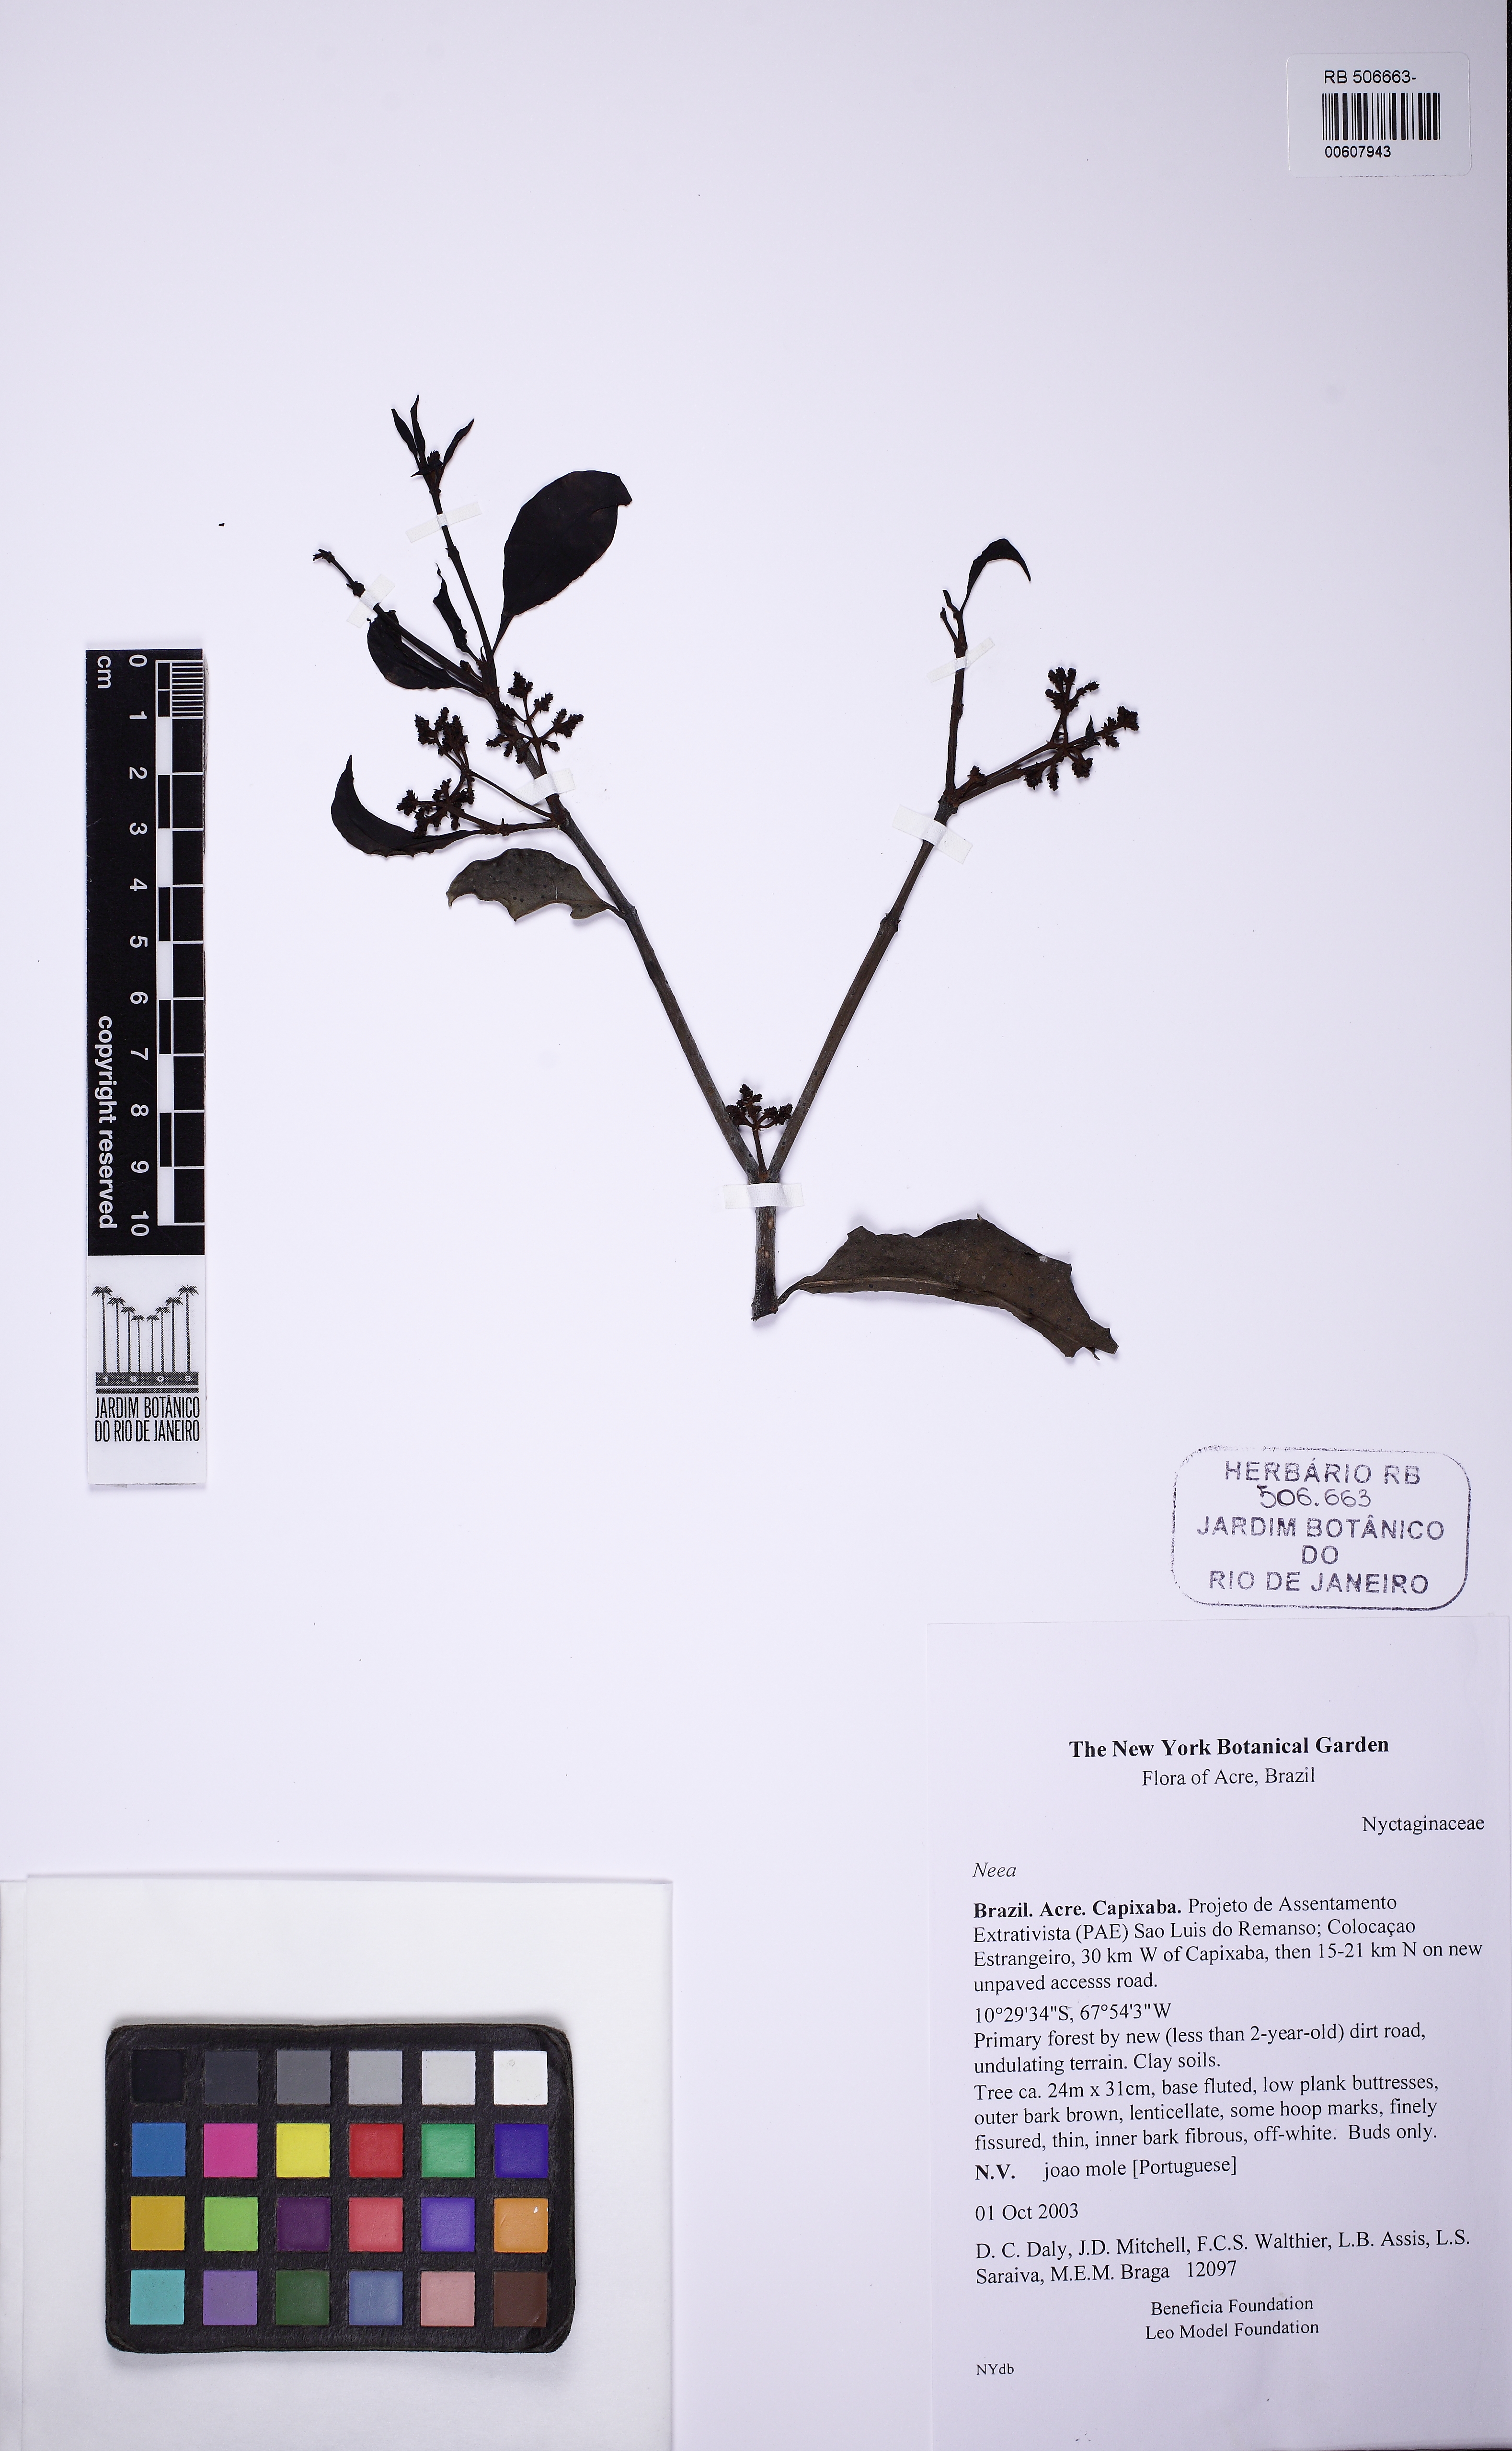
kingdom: Plantae
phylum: Tracheophyta
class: Magnoliopsida
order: Caryophyllales
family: Nyctaginaceae
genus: Neea
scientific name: Neea parviflora
